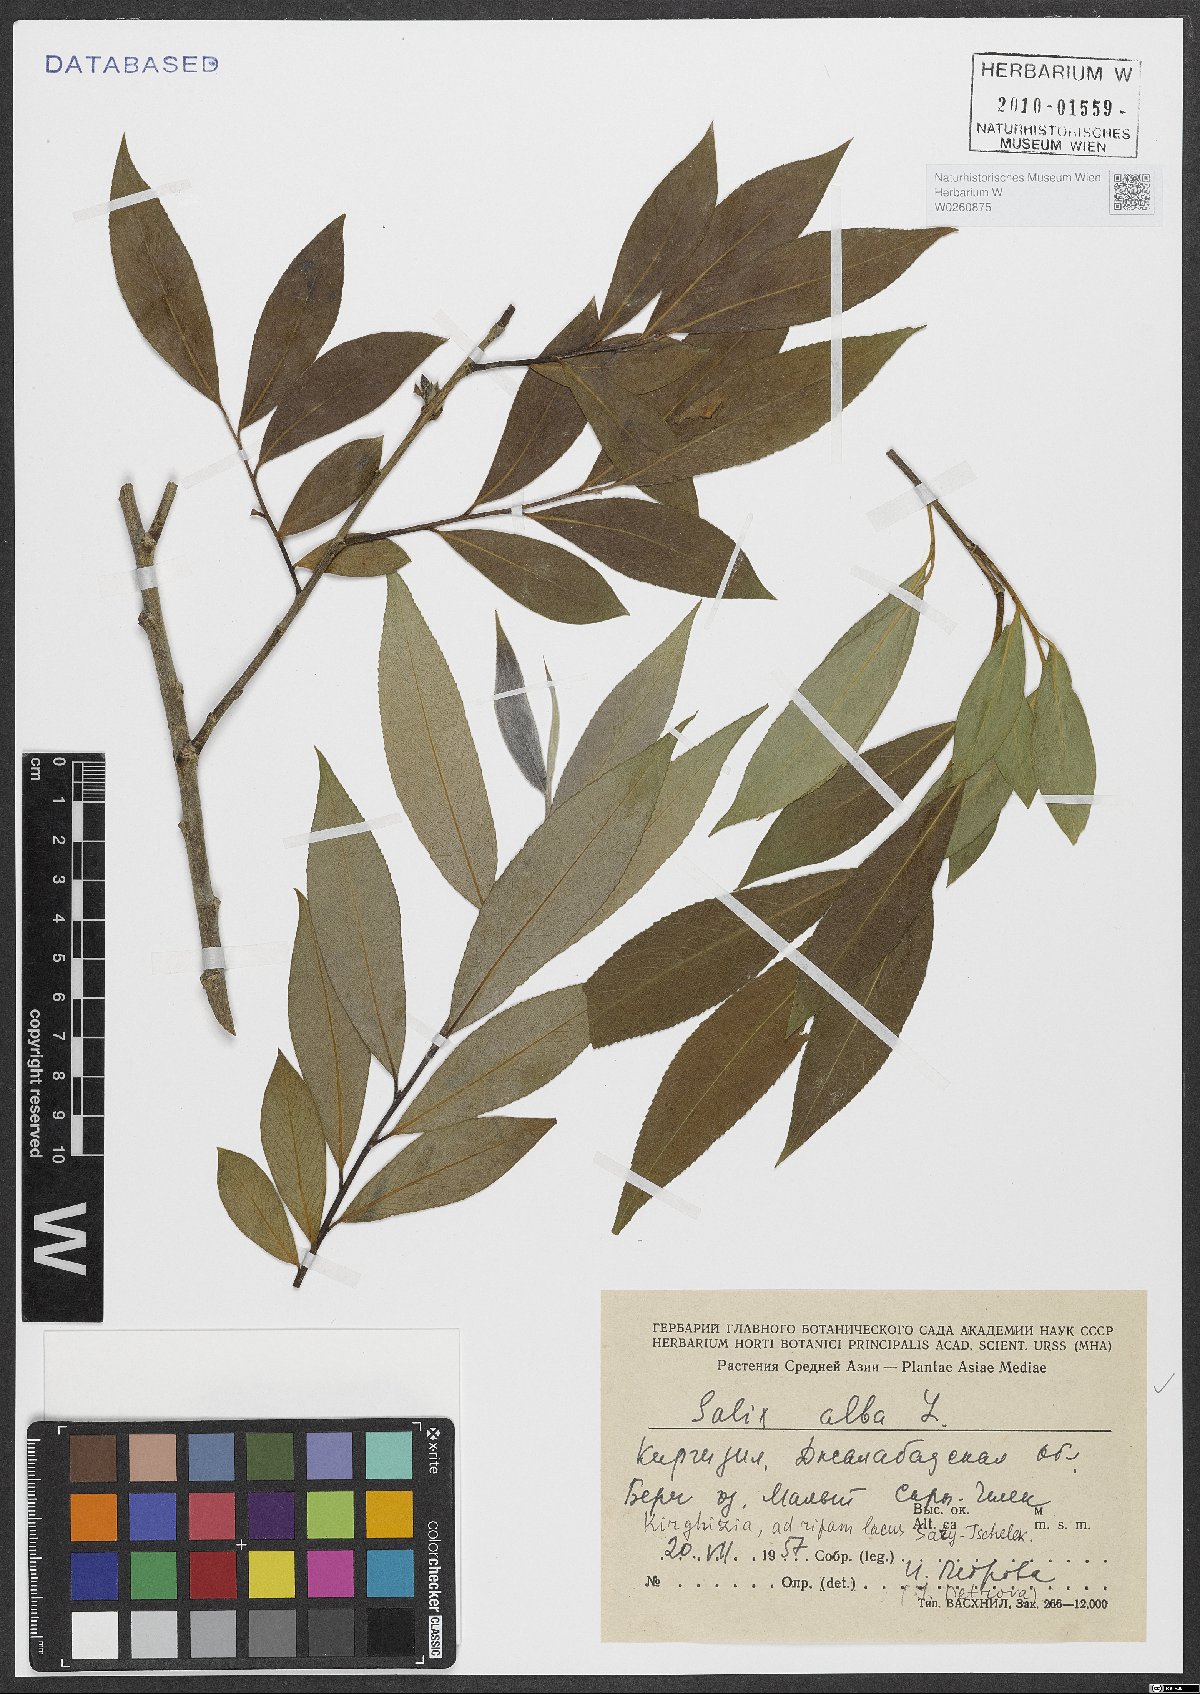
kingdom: Plantae
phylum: Tracheophyta
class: Magnoliopsida
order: Malpighiales
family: Salicaceae
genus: Salix
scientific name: Salix alba
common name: White willow
